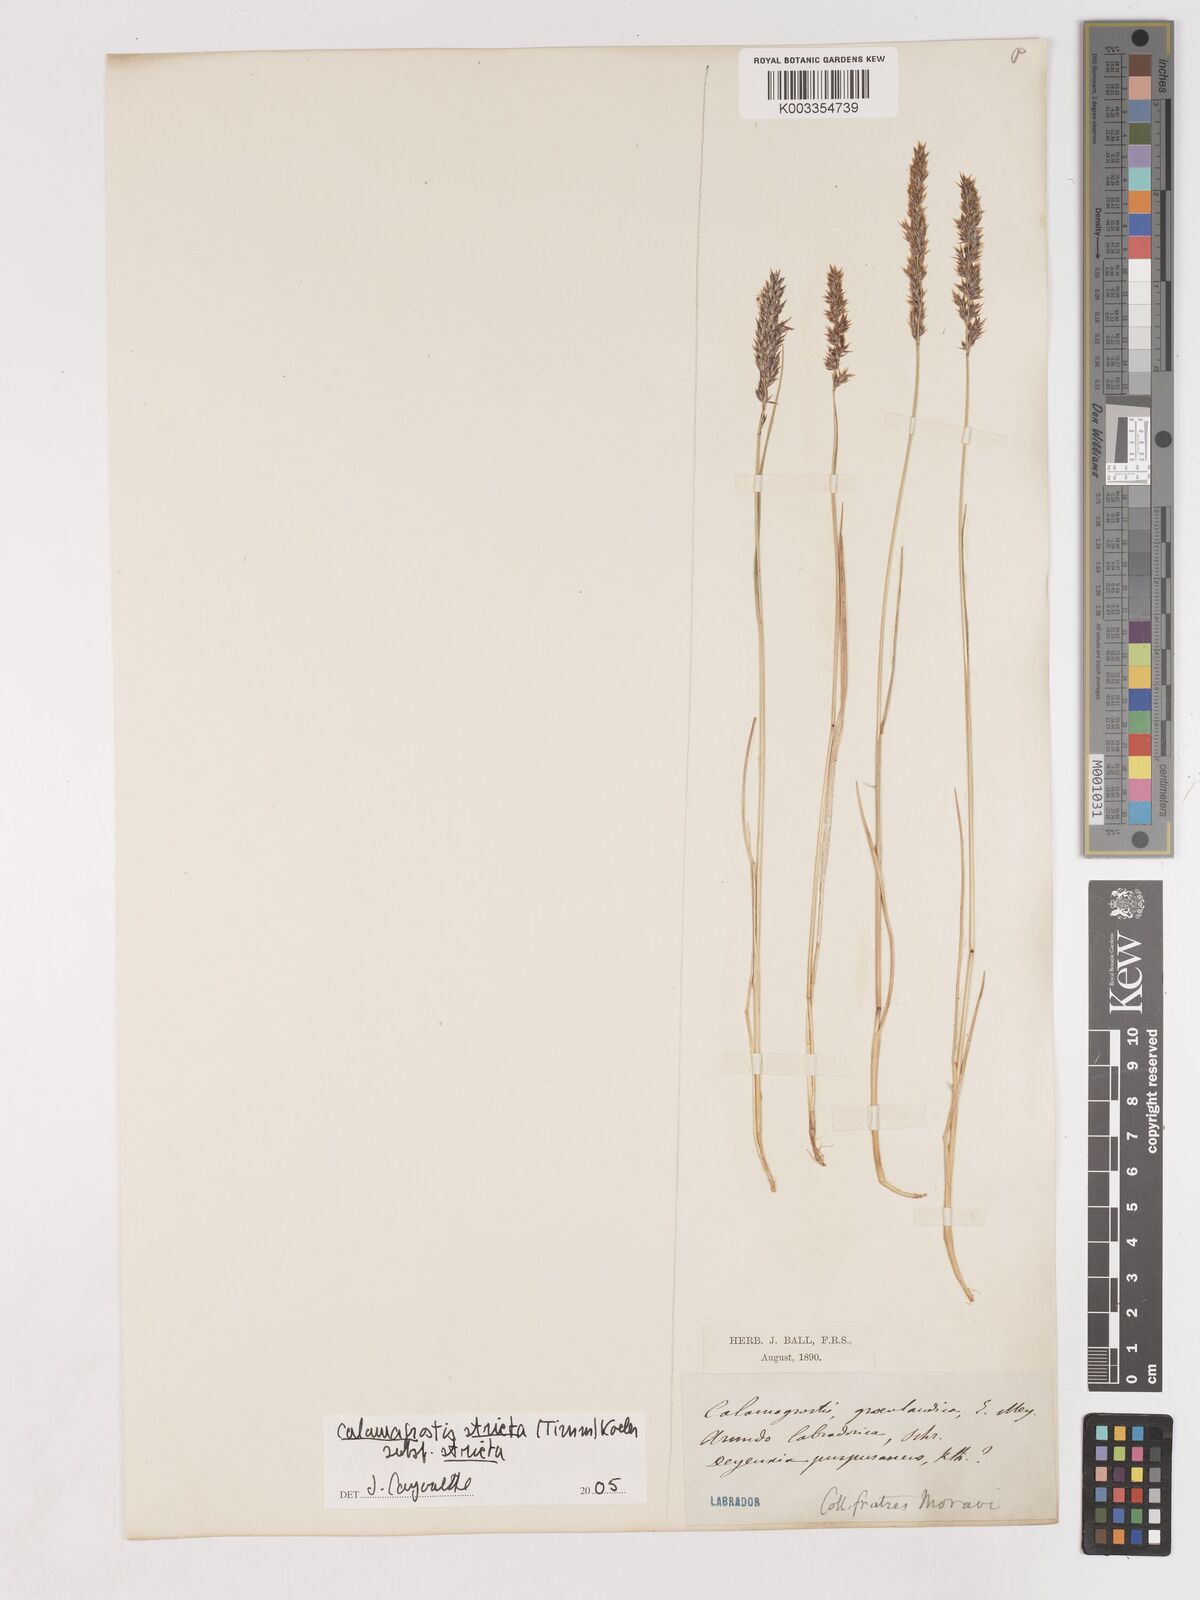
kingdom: Plantae
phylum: Tracheophyta
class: Liliopsida
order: Poales
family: Poaceae
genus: Cinnagrostis
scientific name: Cinnagrostis recta
